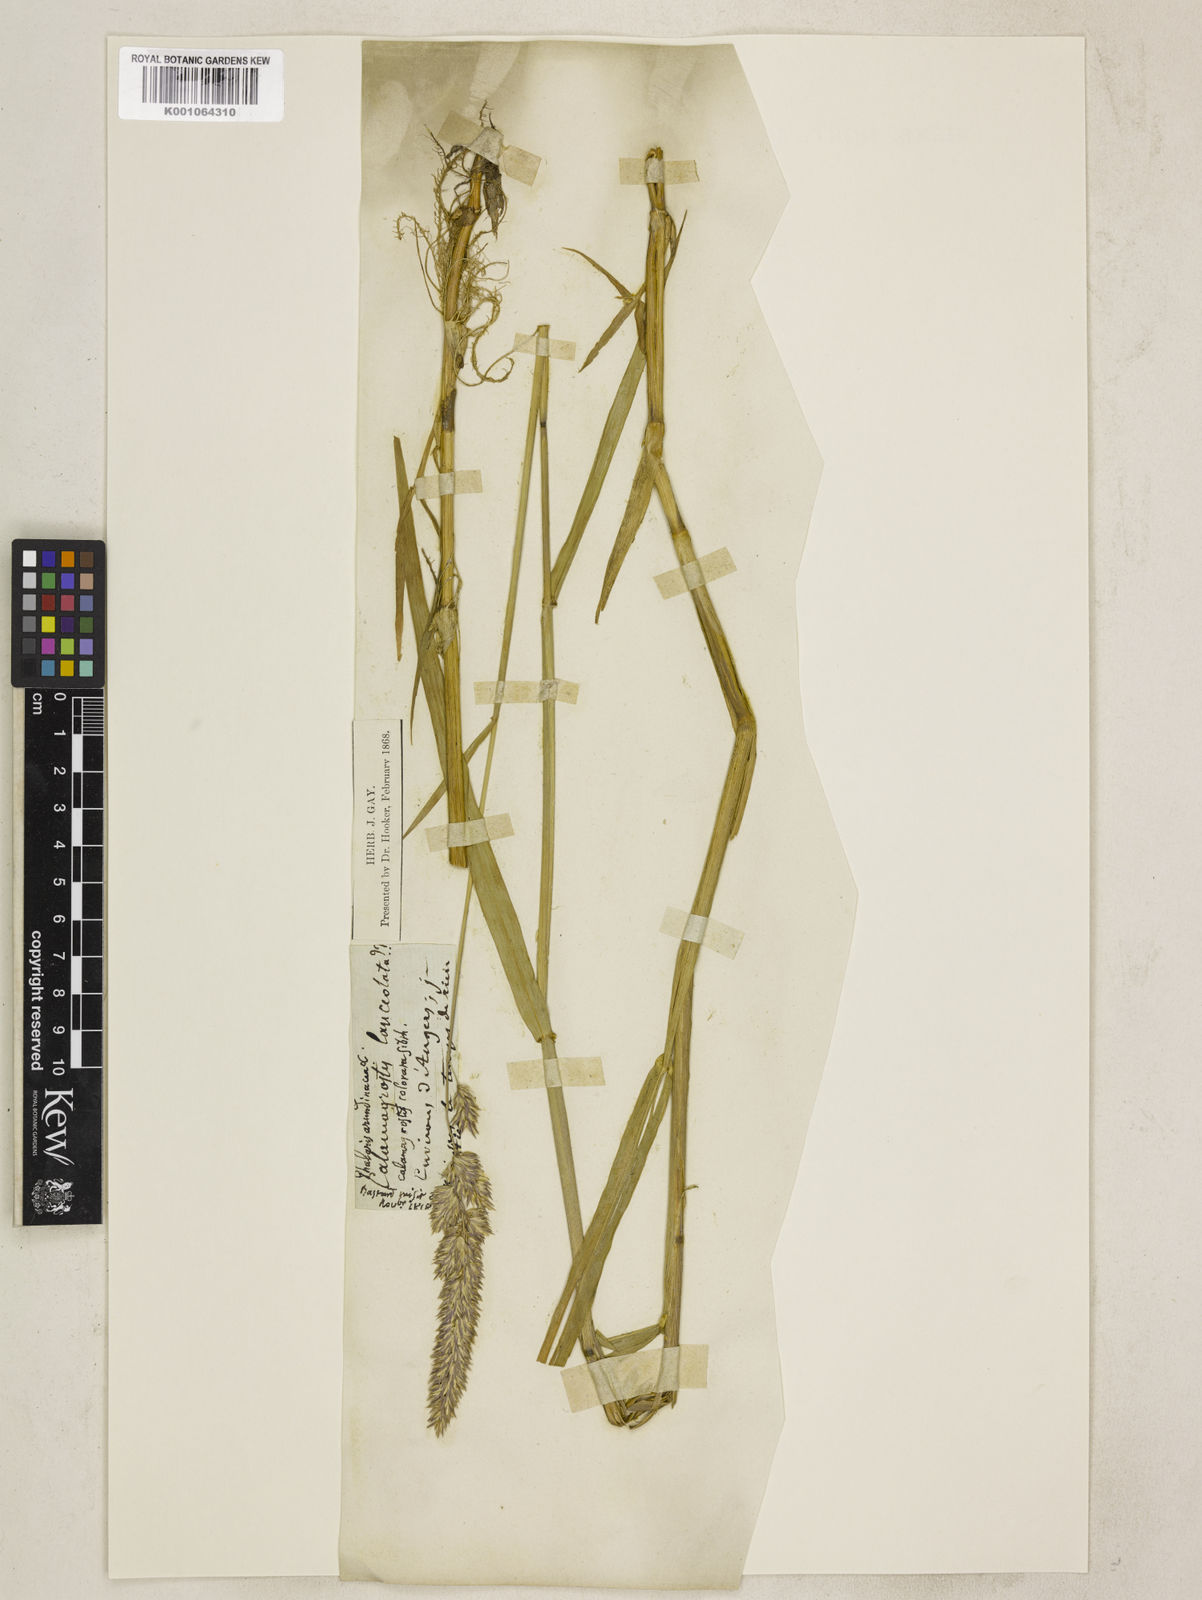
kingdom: Plantae
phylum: Tracheophyta
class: Liliopsida
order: Poales
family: Poaceae
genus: Phalaris
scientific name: Phalaris arundinacea
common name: Reed canary-grass
